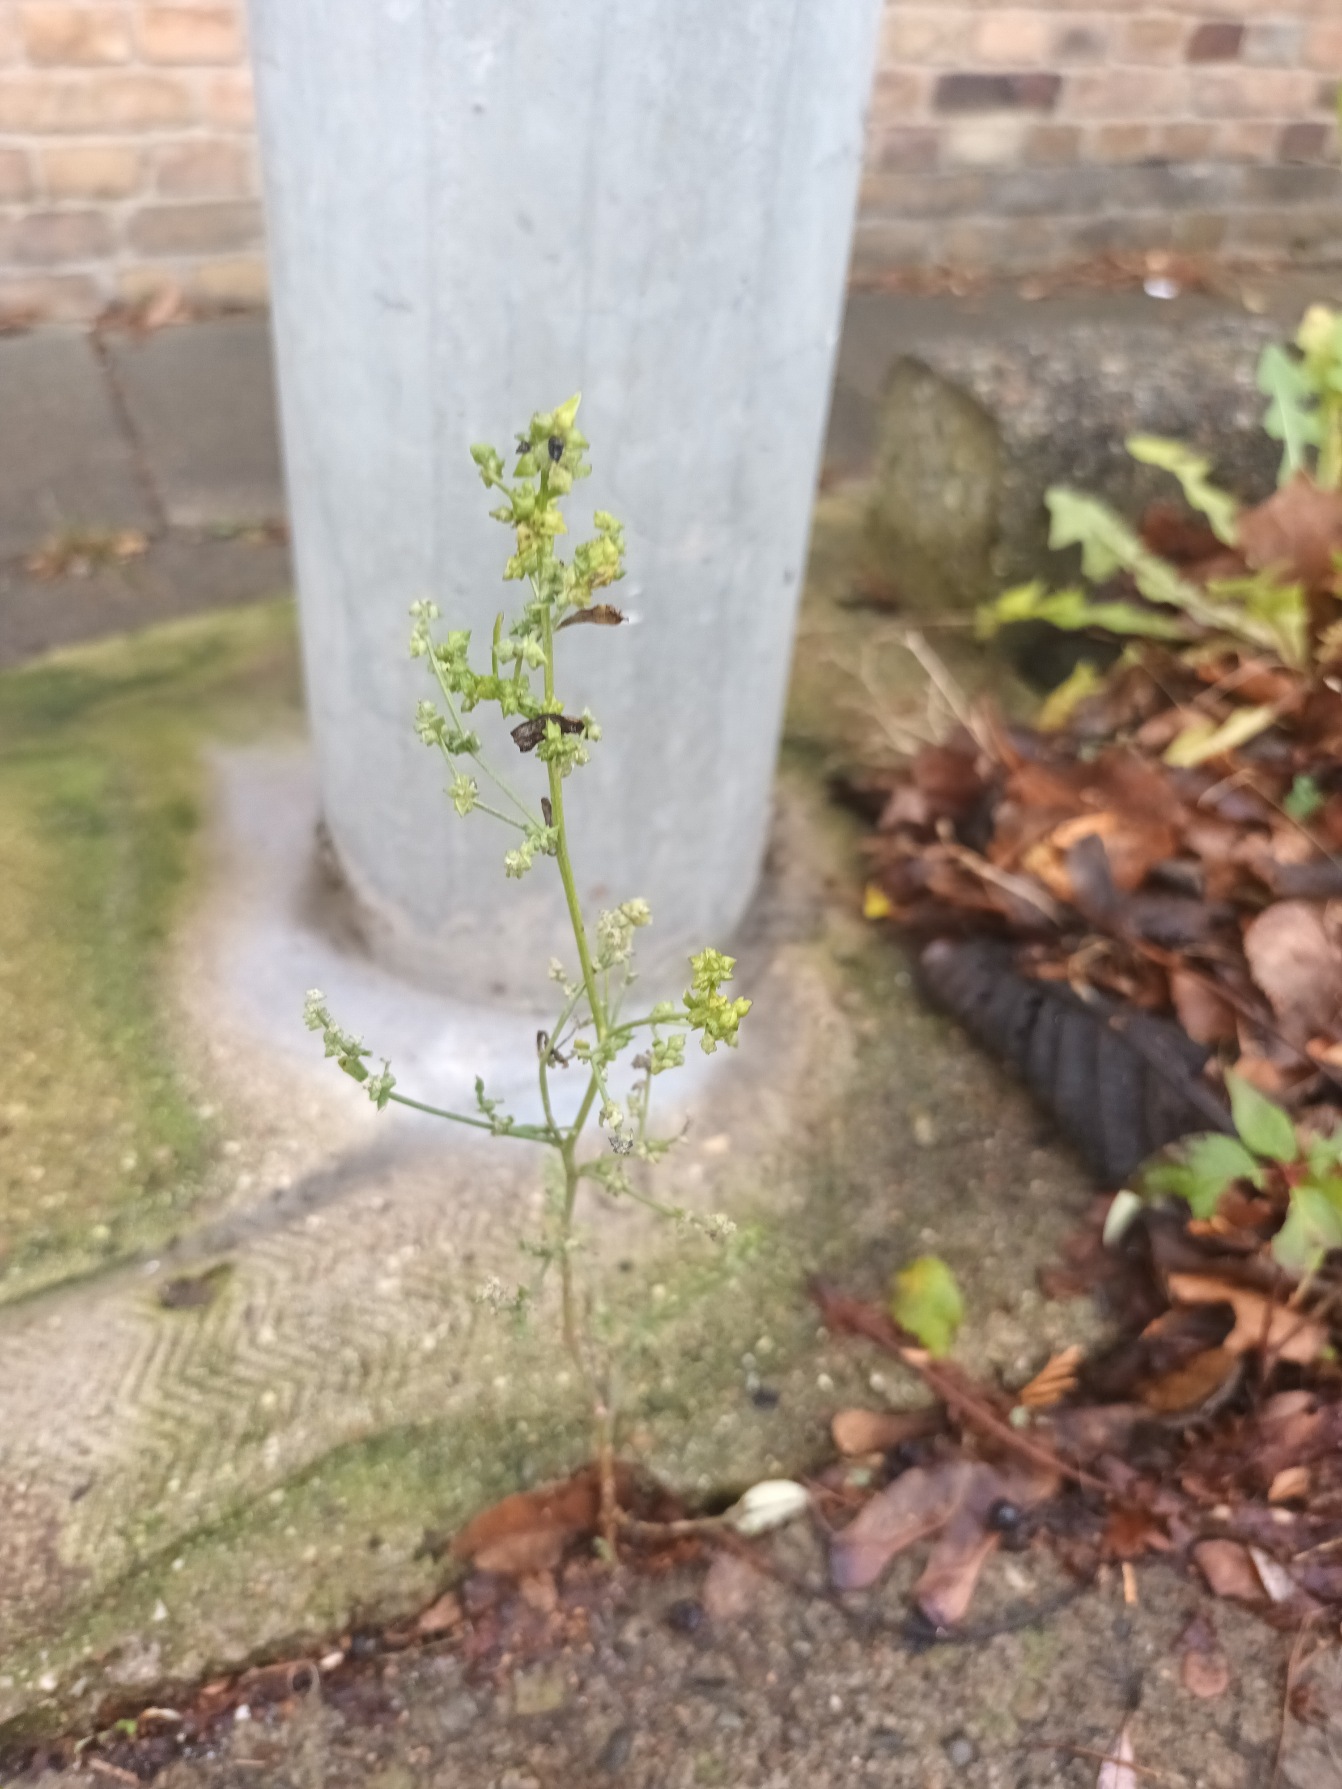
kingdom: Plantae
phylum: Tracheophyta
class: Magnoliopsida
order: Caryophyllales
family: Amaranthaceae
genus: Atriplex
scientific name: Atriplex patula
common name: Svine-mælde
